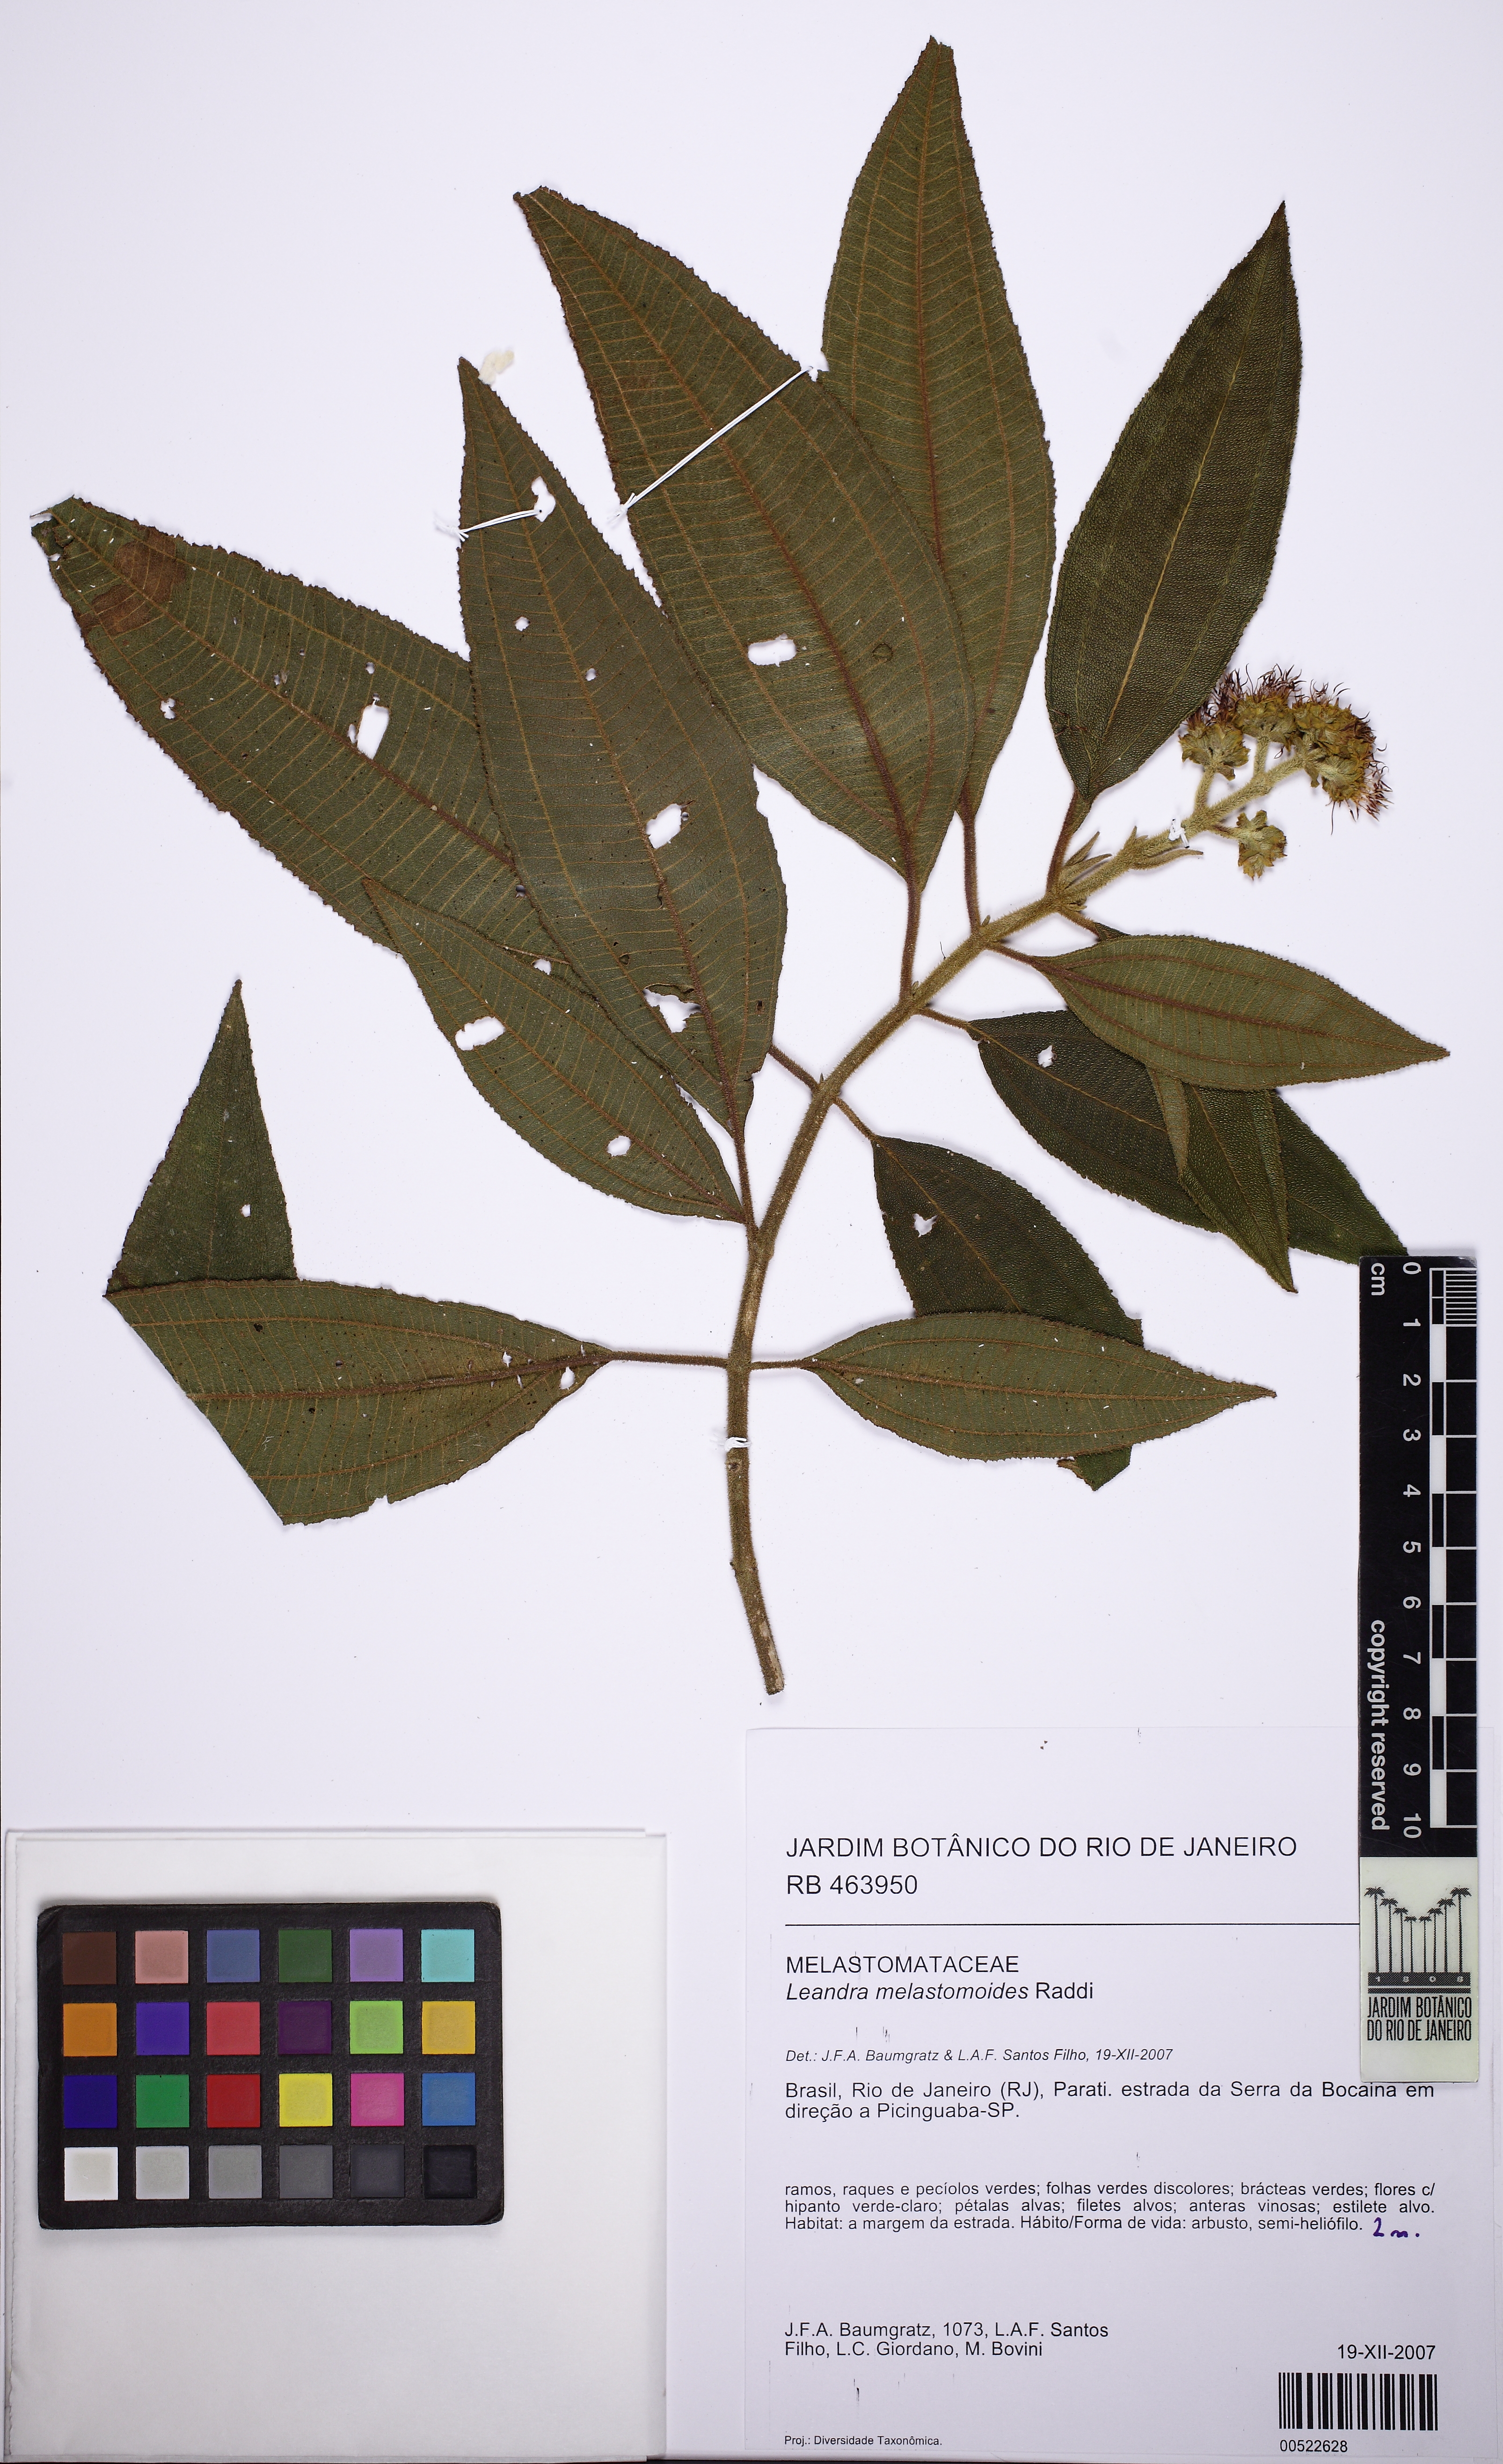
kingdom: Plantae
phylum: Tracheophyta
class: Magnoliopsida
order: Myrtales
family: Melastomataceae
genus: Miconia
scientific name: Miconia melastomoides
